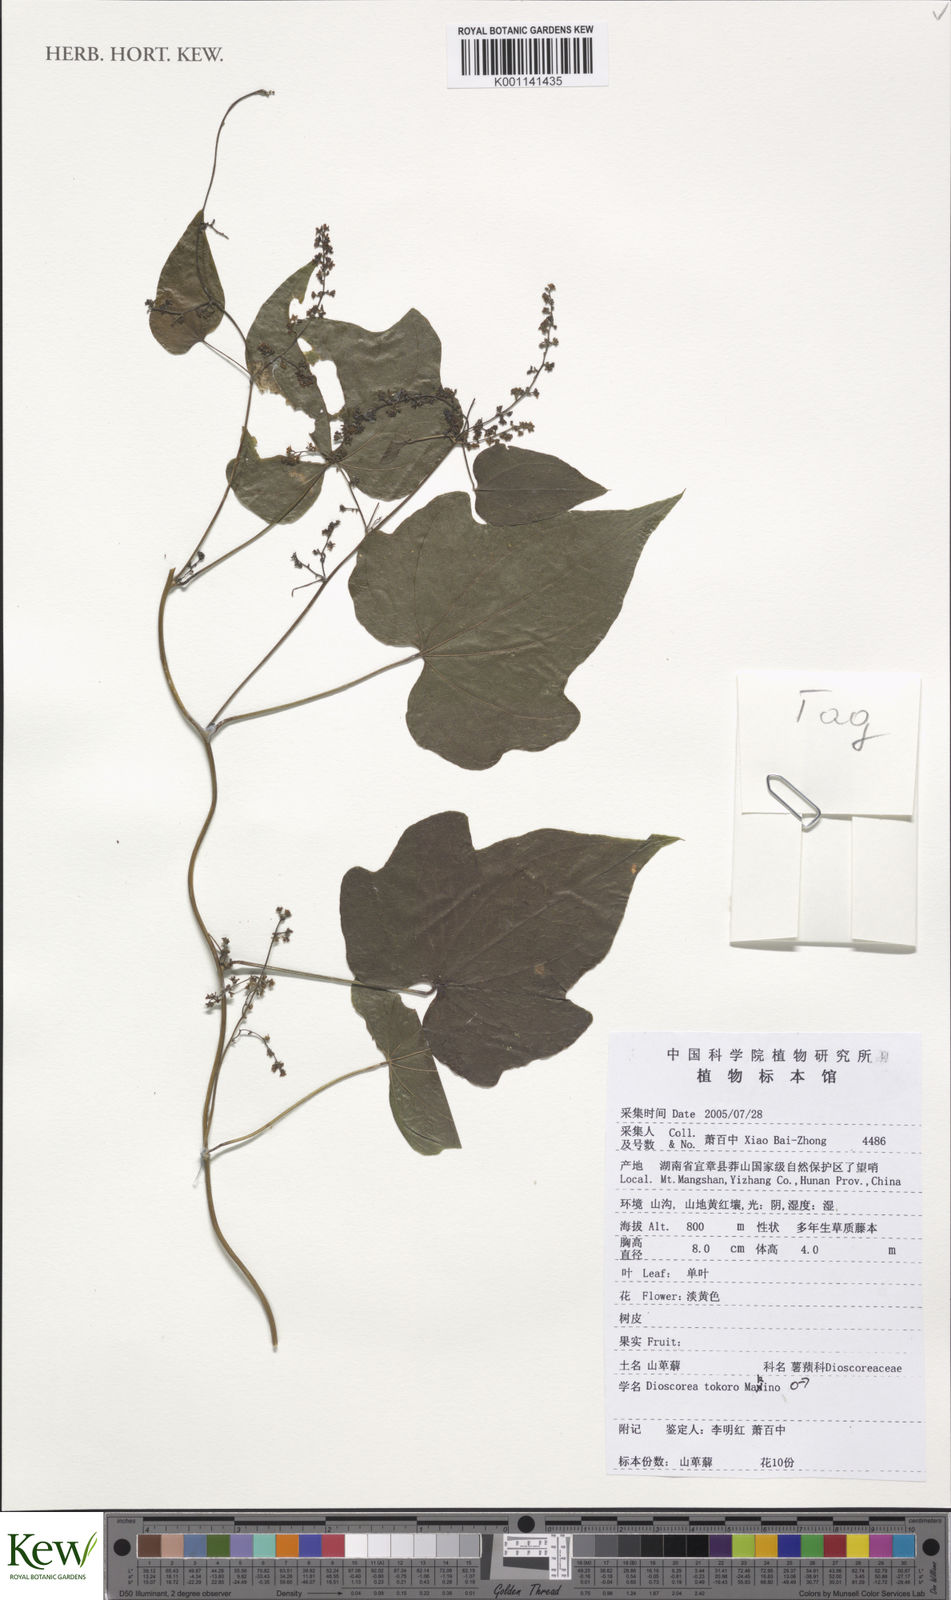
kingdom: Plantae
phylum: Tracheophyta
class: Liliopsida
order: Dioscoreales
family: Dioscoreaceae
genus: Dioscorea
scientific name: Dioscorea tokoro
